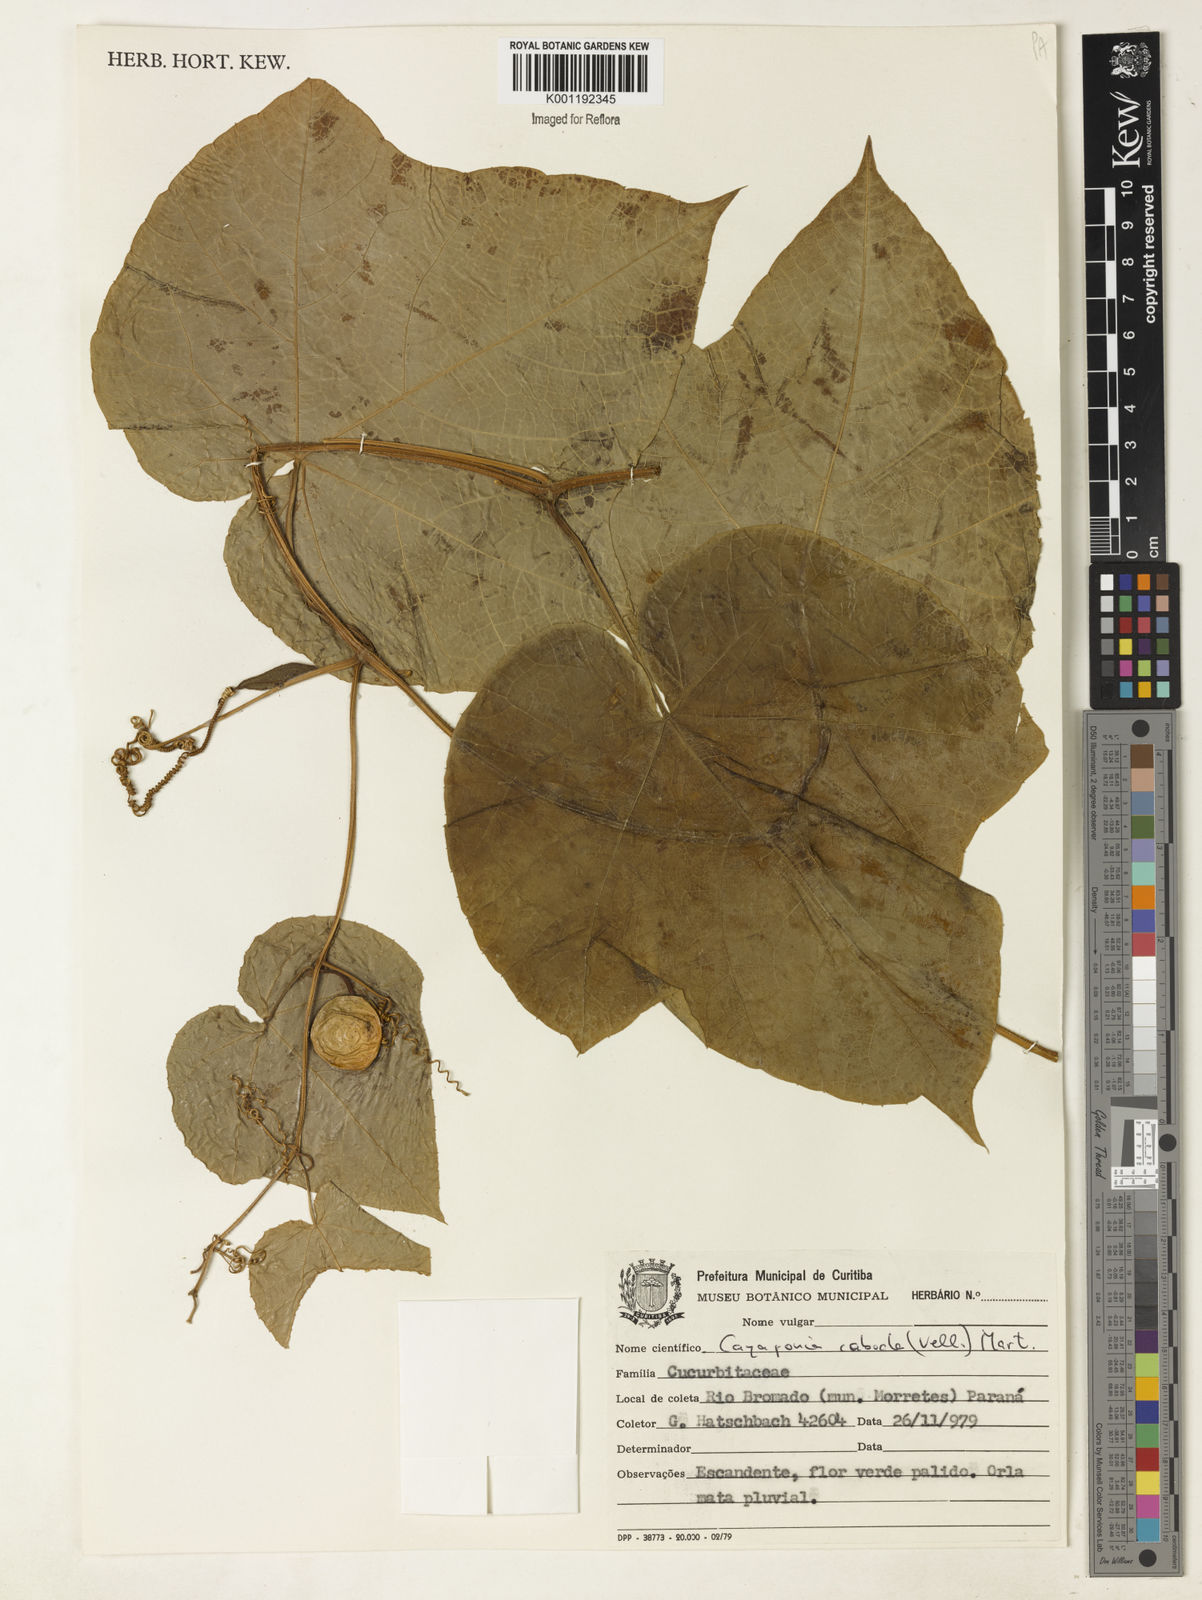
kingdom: Plantae
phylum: Tracheophyta
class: Magnoliopsida
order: Cucurbitales
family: Cucurbitaceae
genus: Cayaponia
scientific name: Cayaponia cabocla
